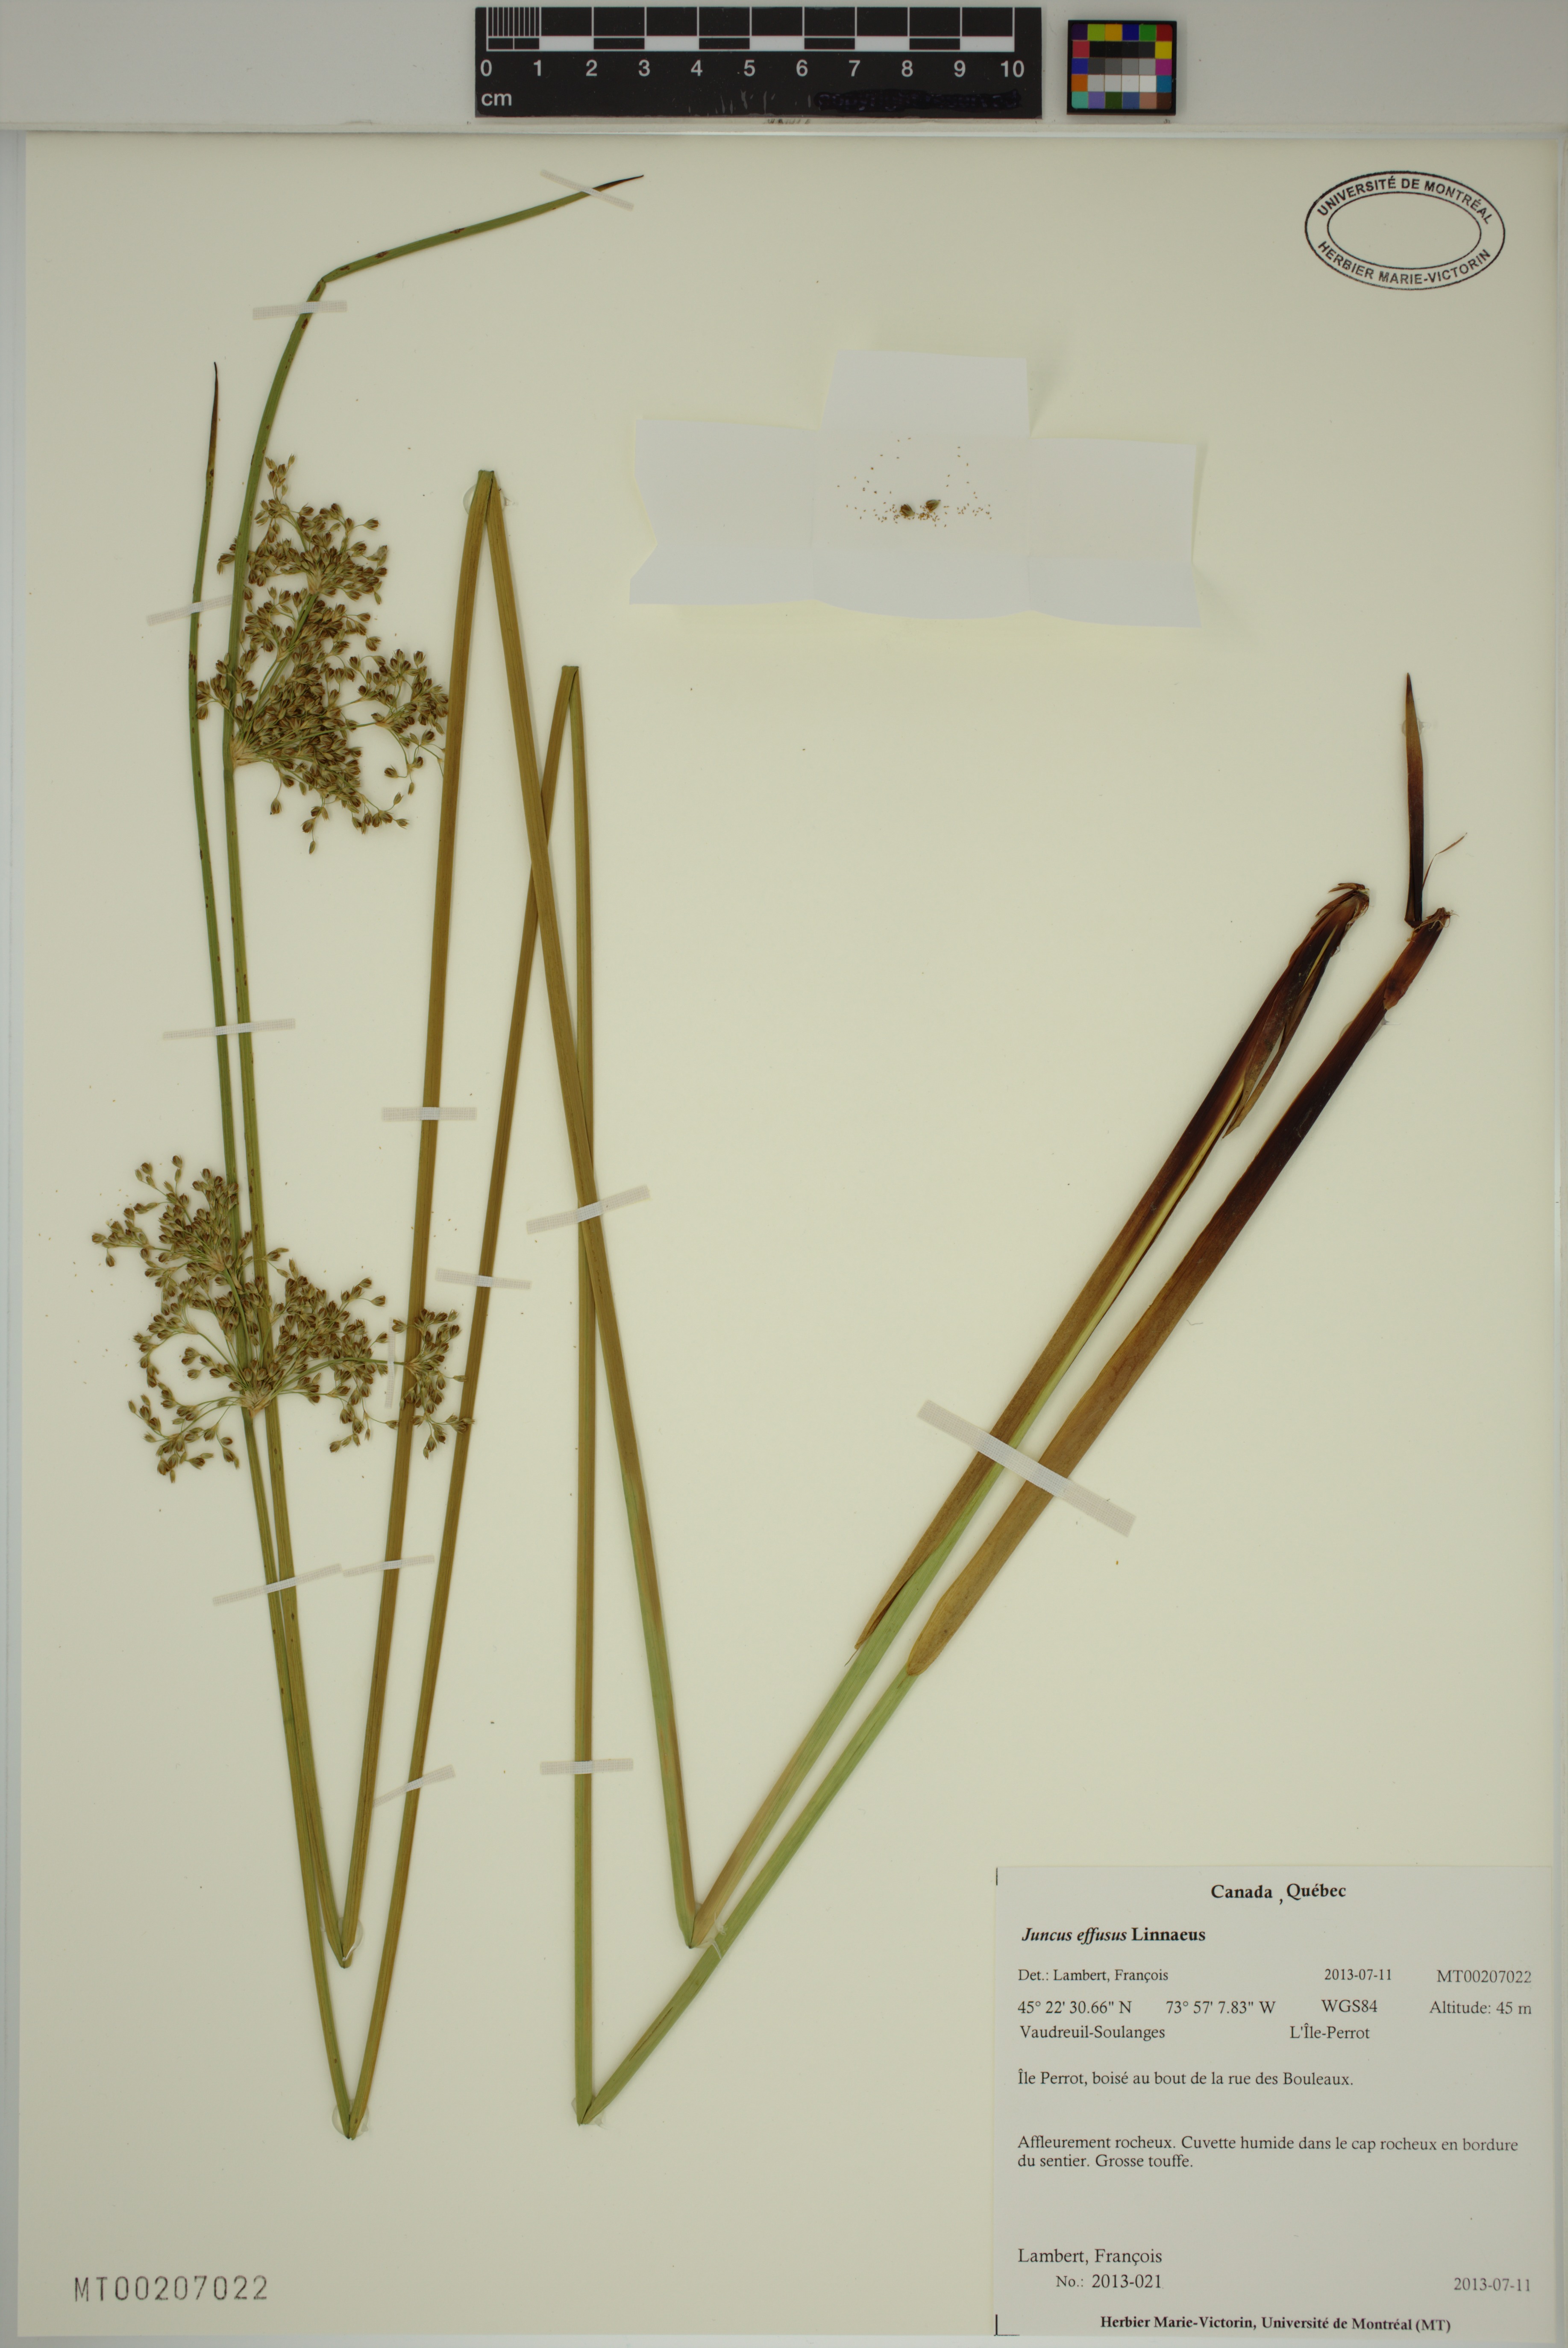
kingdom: Plantae
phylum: Tracheophyta
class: Liliopsida
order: Poales
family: Juncaceae
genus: Juncus
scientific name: Juncus effusus
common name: Soft rush
